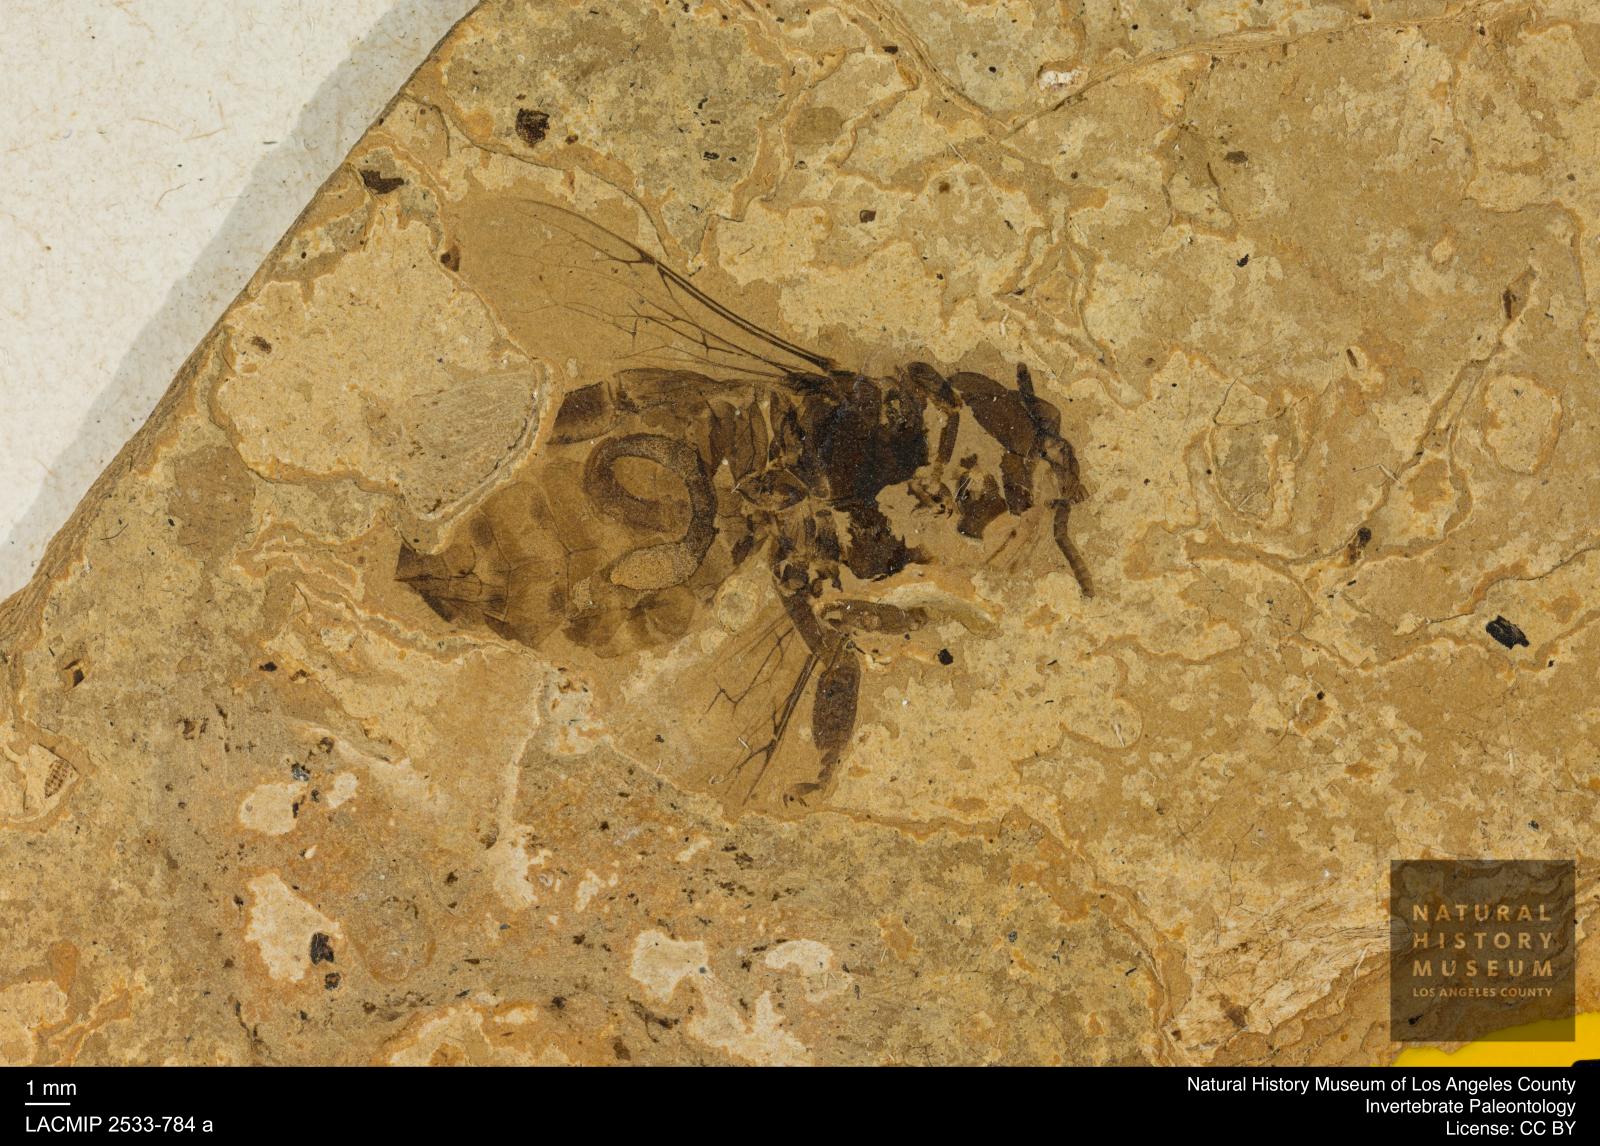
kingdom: Animalia
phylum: Arthropoda
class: Insecta
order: Hymenoptera
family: Apidae
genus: Apis
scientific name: Apis henshawi
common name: Henshaw's honey bee
